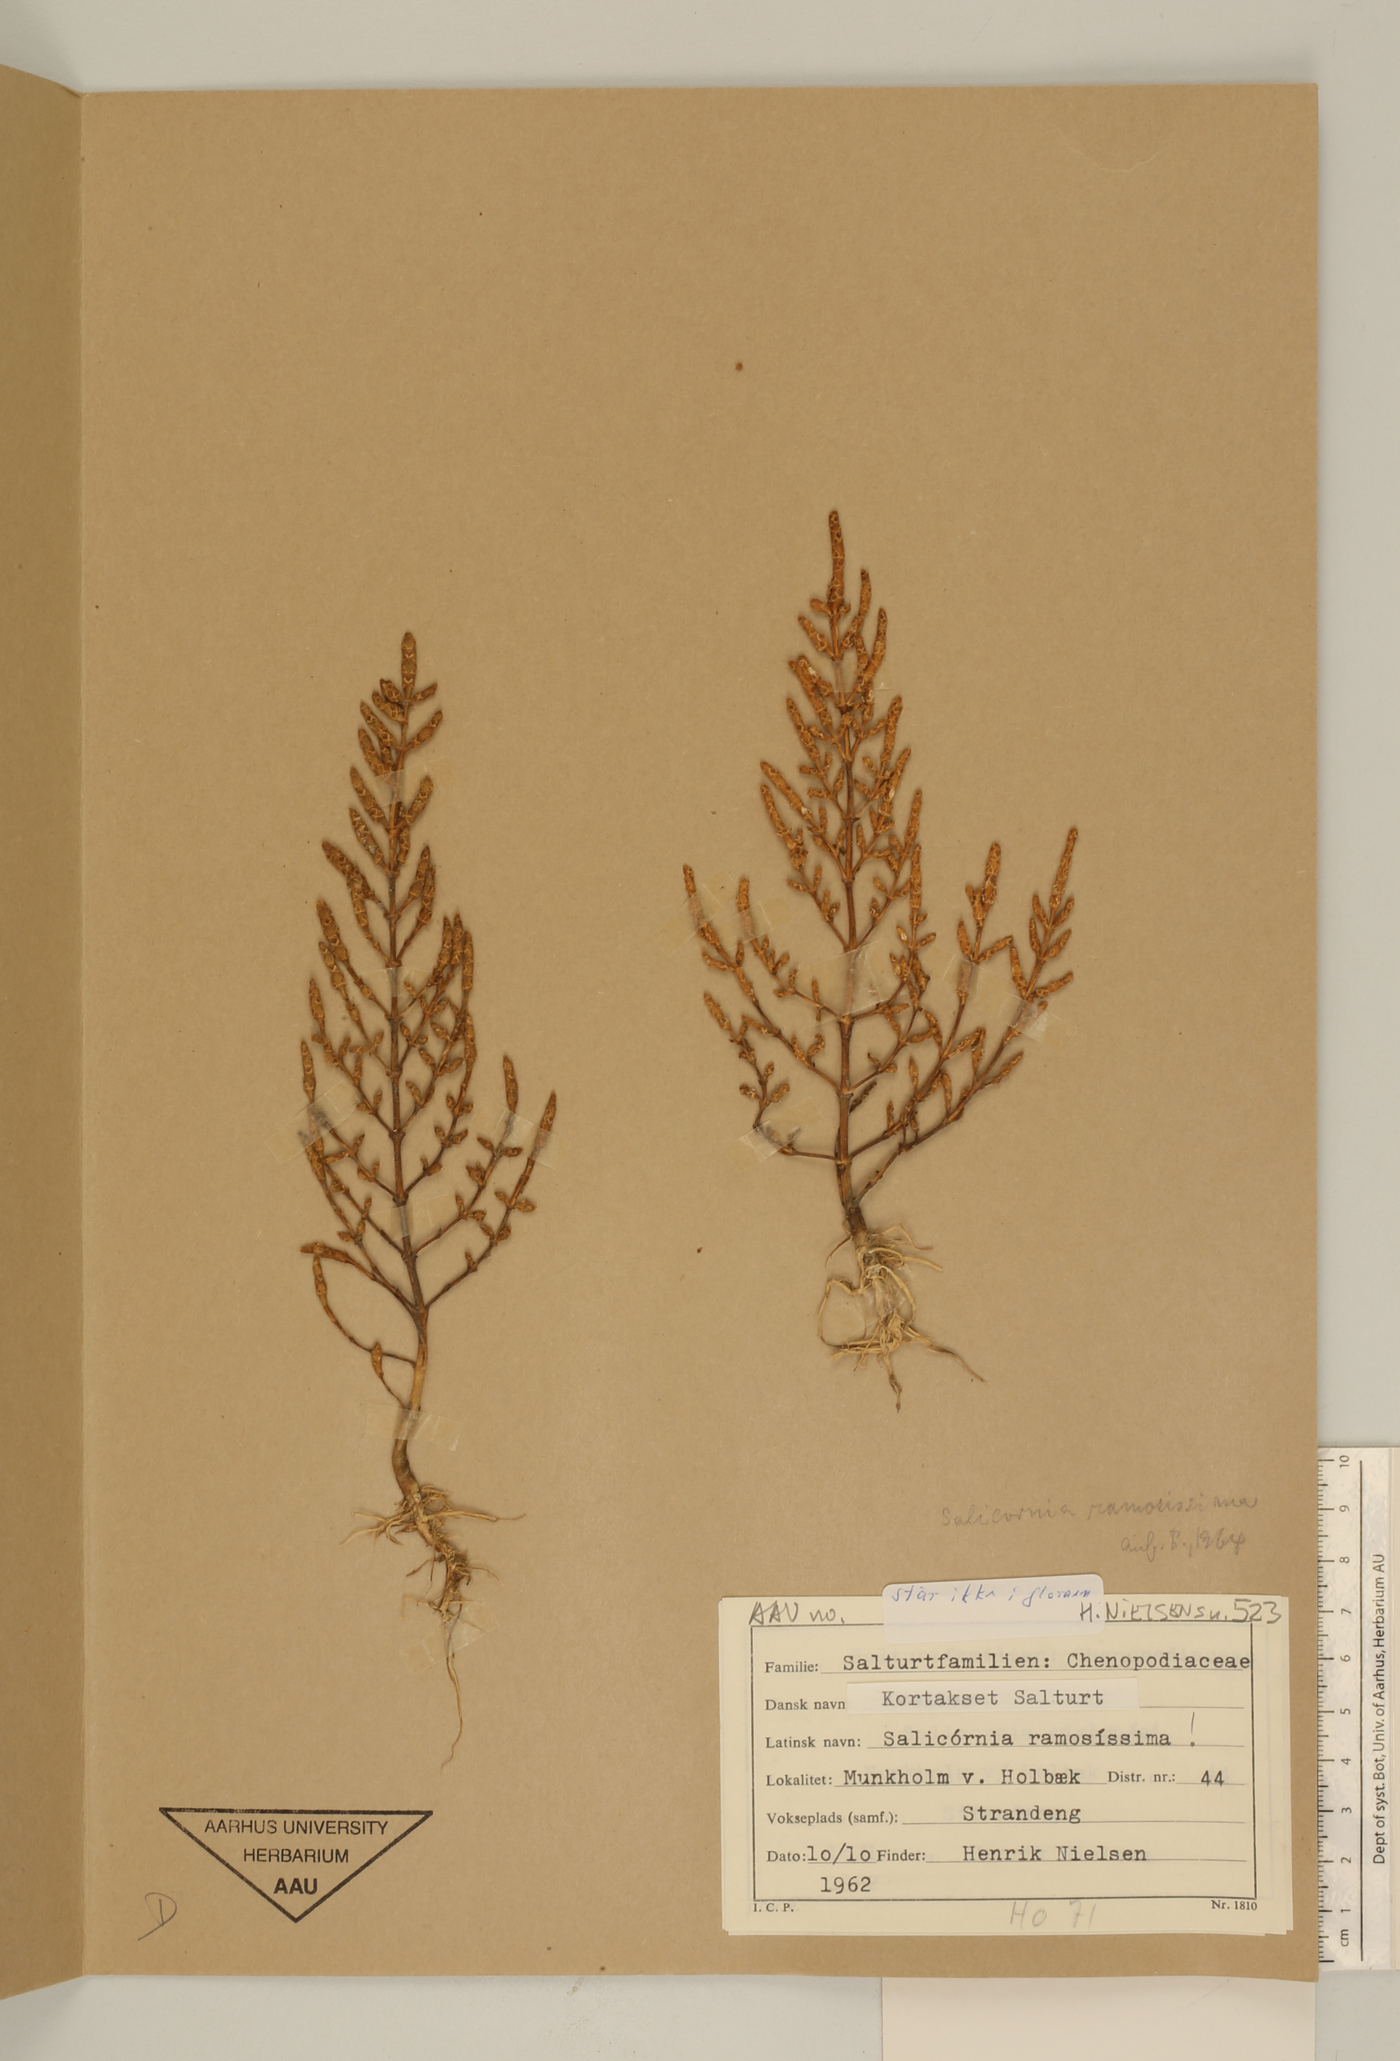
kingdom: Plantae
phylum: Tracheophyta
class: Magnoliopsida
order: Caryophyllales
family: Amaranthaceae
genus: Salicornia
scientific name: Salicornia europaea
